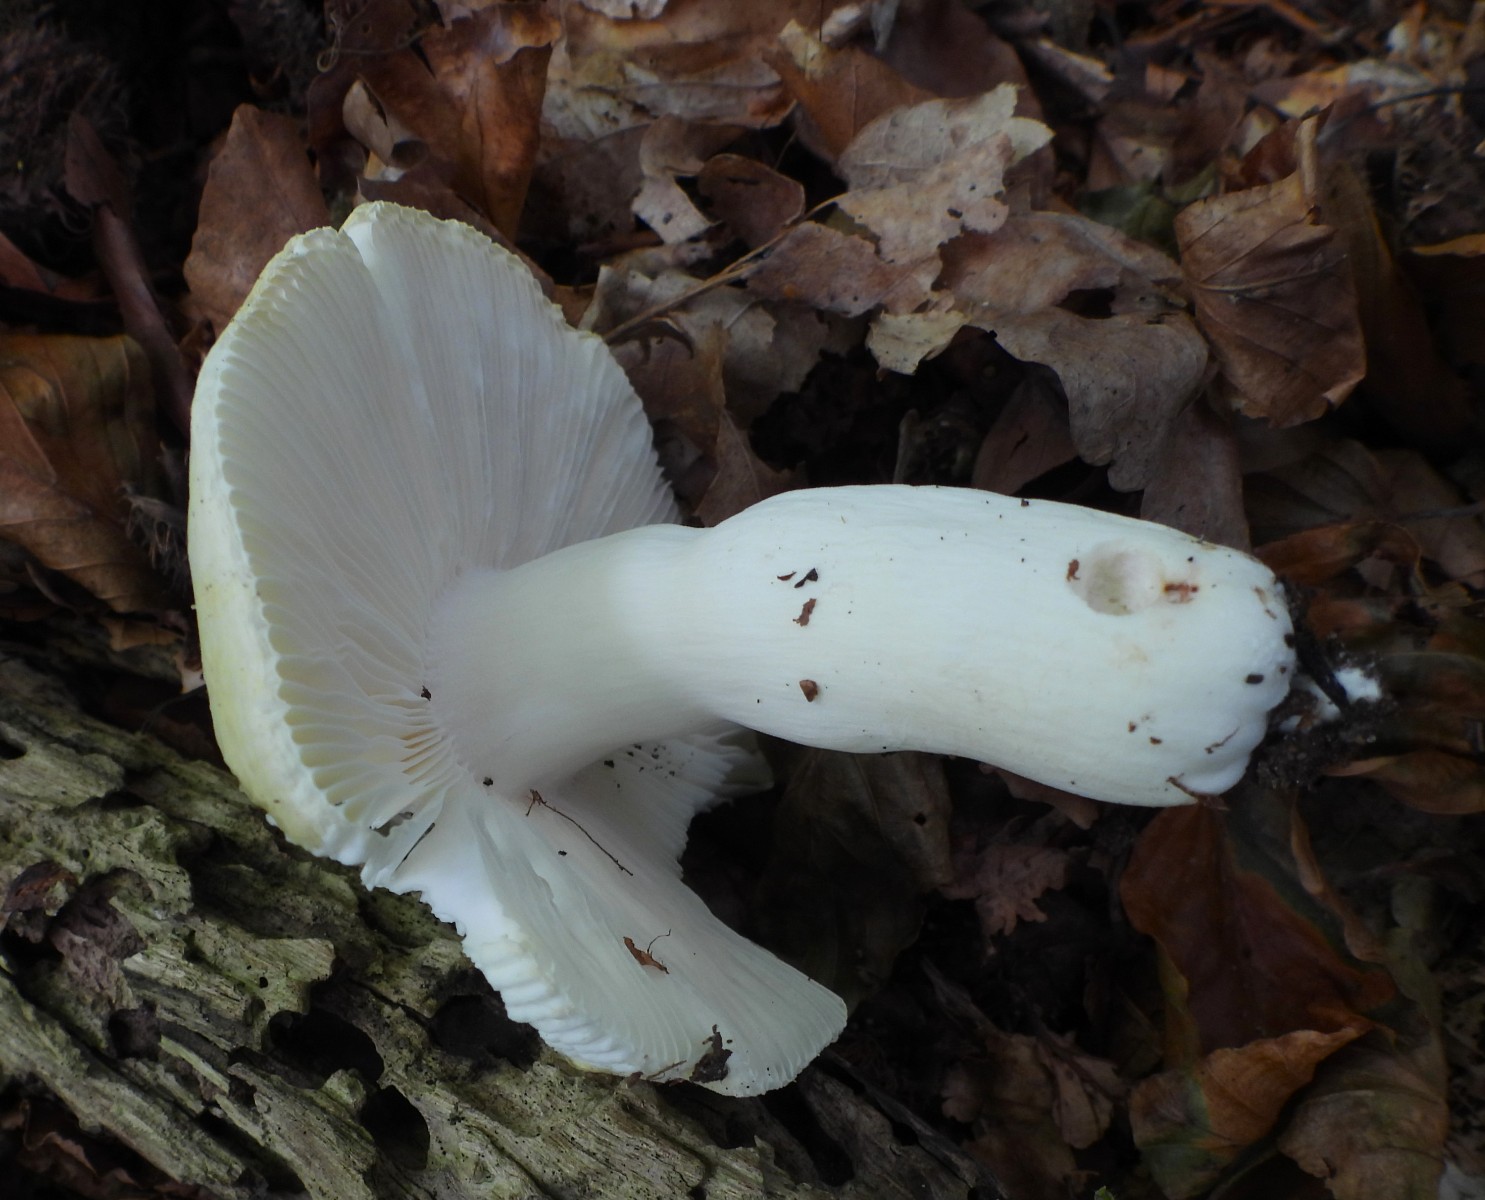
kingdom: Fungi
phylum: Basidiomycota
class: Agaricomycetes
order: Russulales
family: Russulaceae
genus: Russula
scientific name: Russula violeipes
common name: ferskengul skørhat
